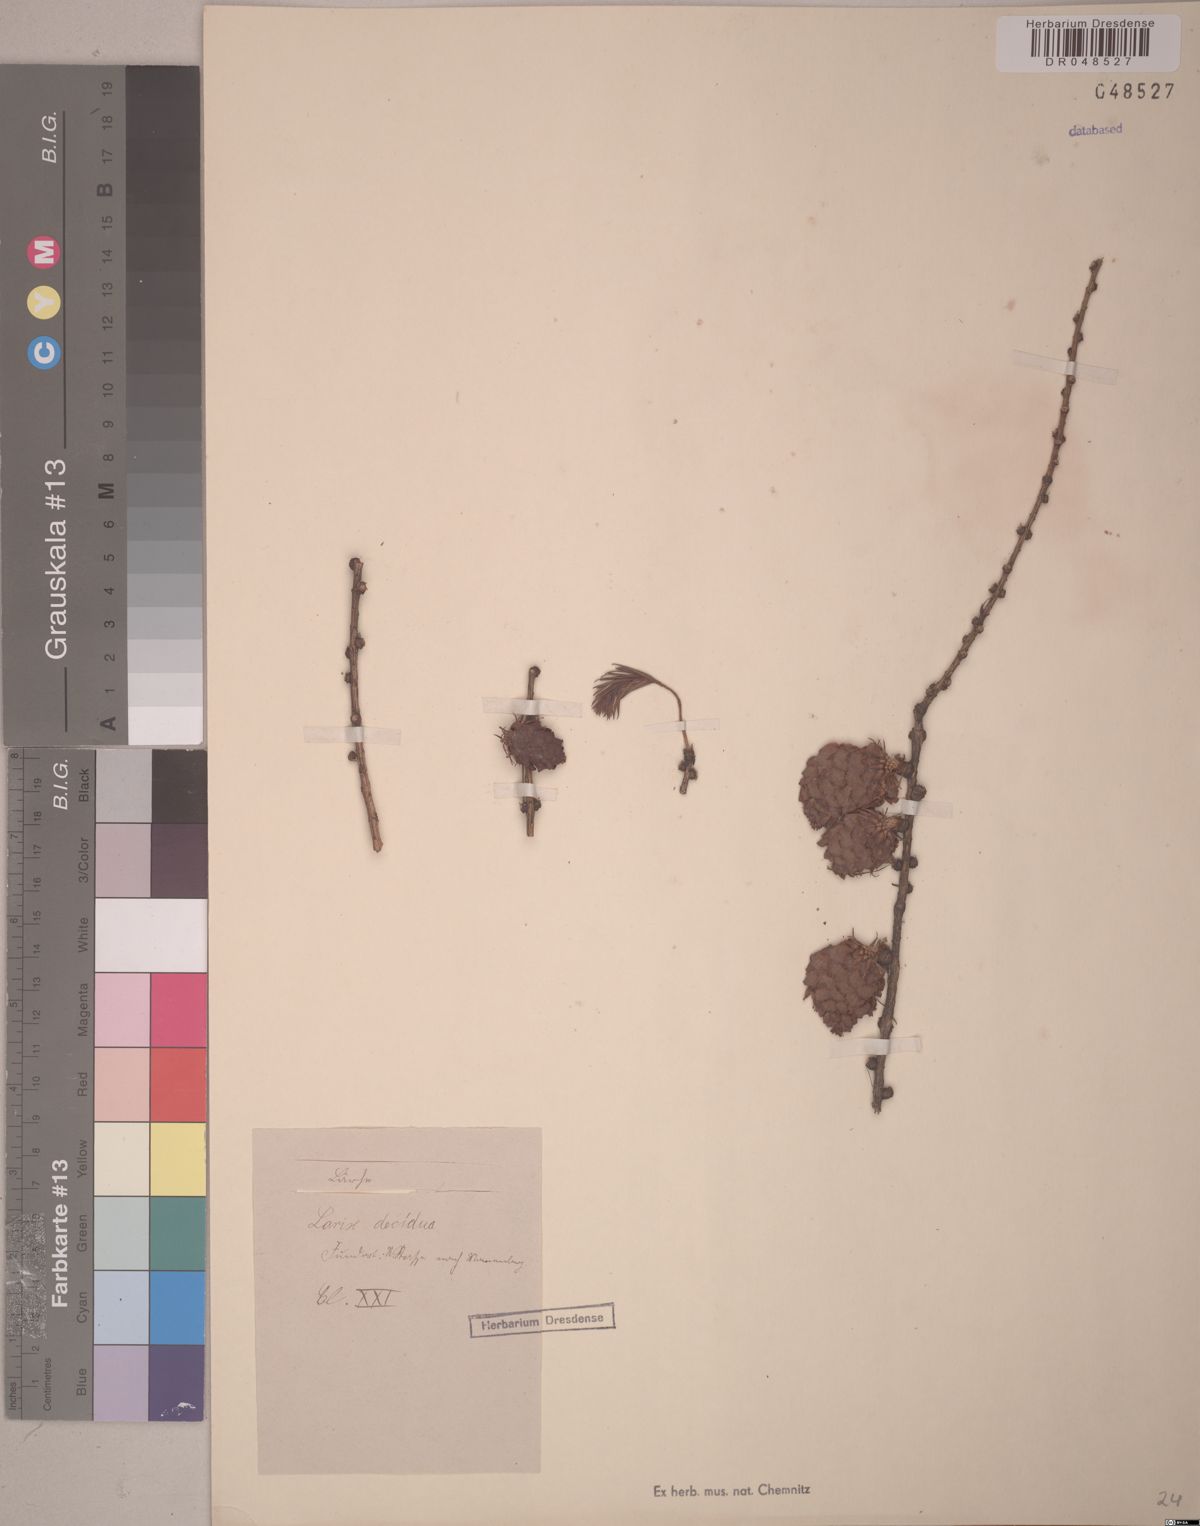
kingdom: Plantae
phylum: Tracheophyta
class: Pinopsida
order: Pinales
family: Pinaceae
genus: Larix
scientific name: Larix decidua
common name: European larch
